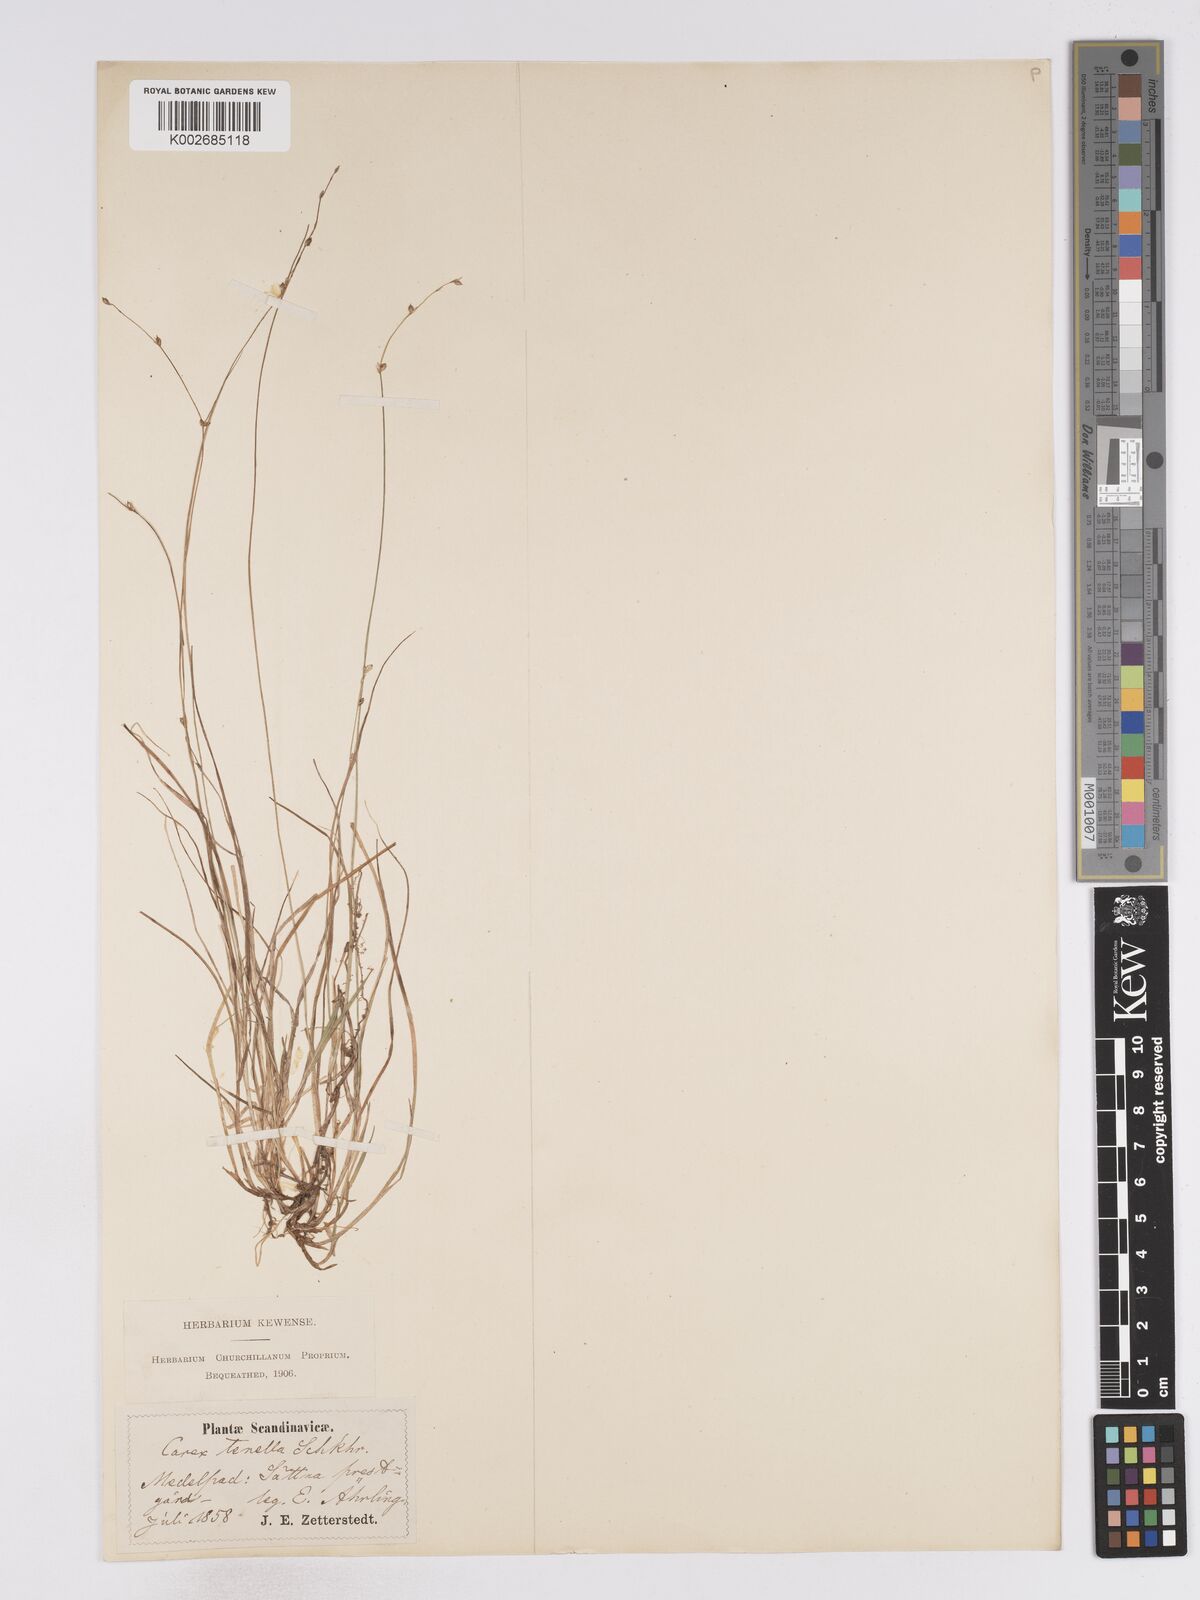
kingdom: Plantae
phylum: Tracheophyta
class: Liliopsida
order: Poales
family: Cyperaceae
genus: Carex
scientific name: Carex disperma
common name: Short-leaved sedge
